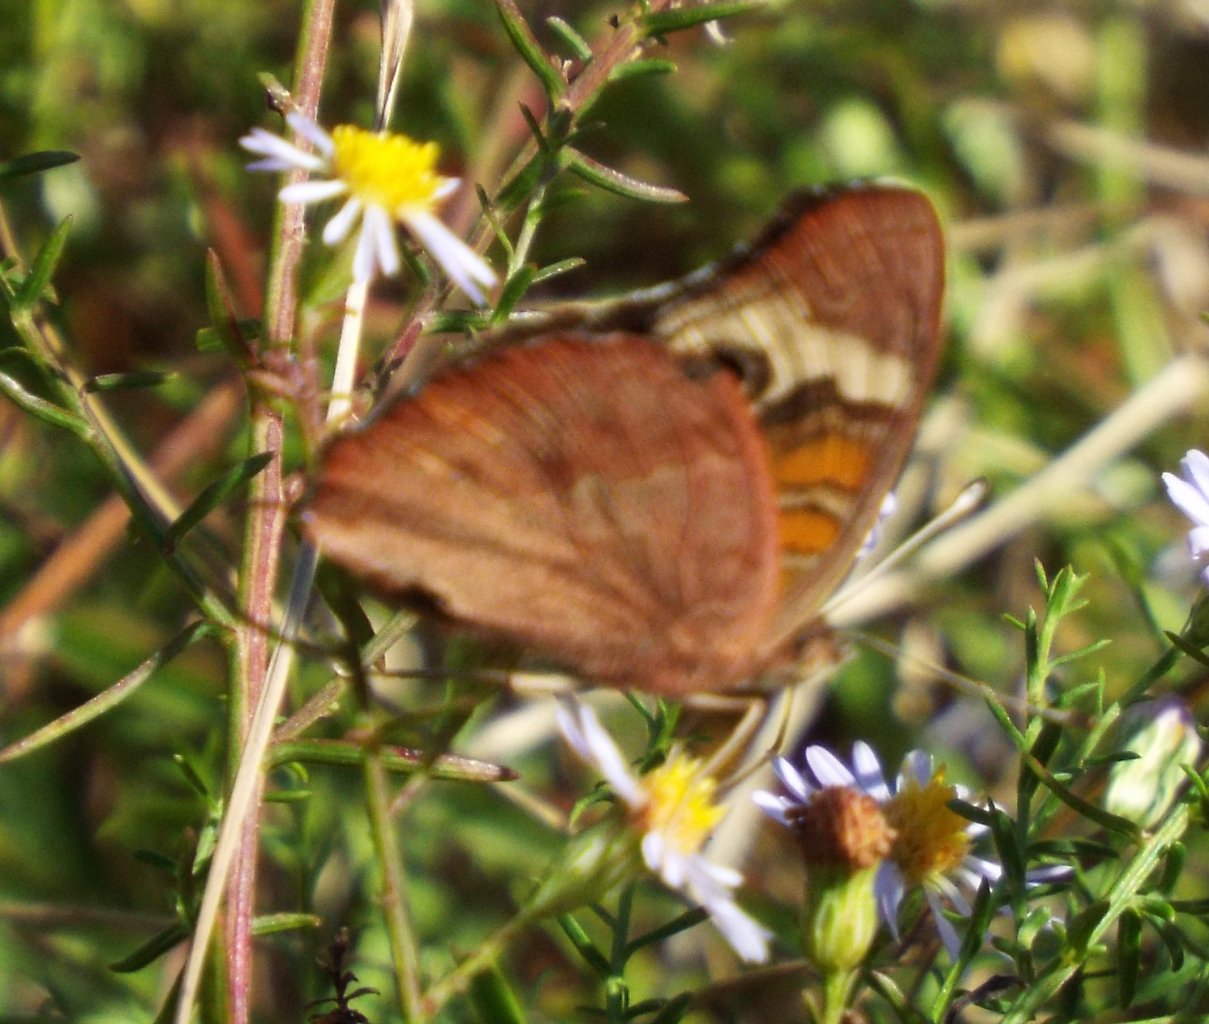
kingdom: Animalia
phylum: Arthropoda
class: Insecta
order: Lepidoptera
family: Nymphalidae
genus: Junonia
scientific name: Junonia coenia
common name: Common Buckeye
